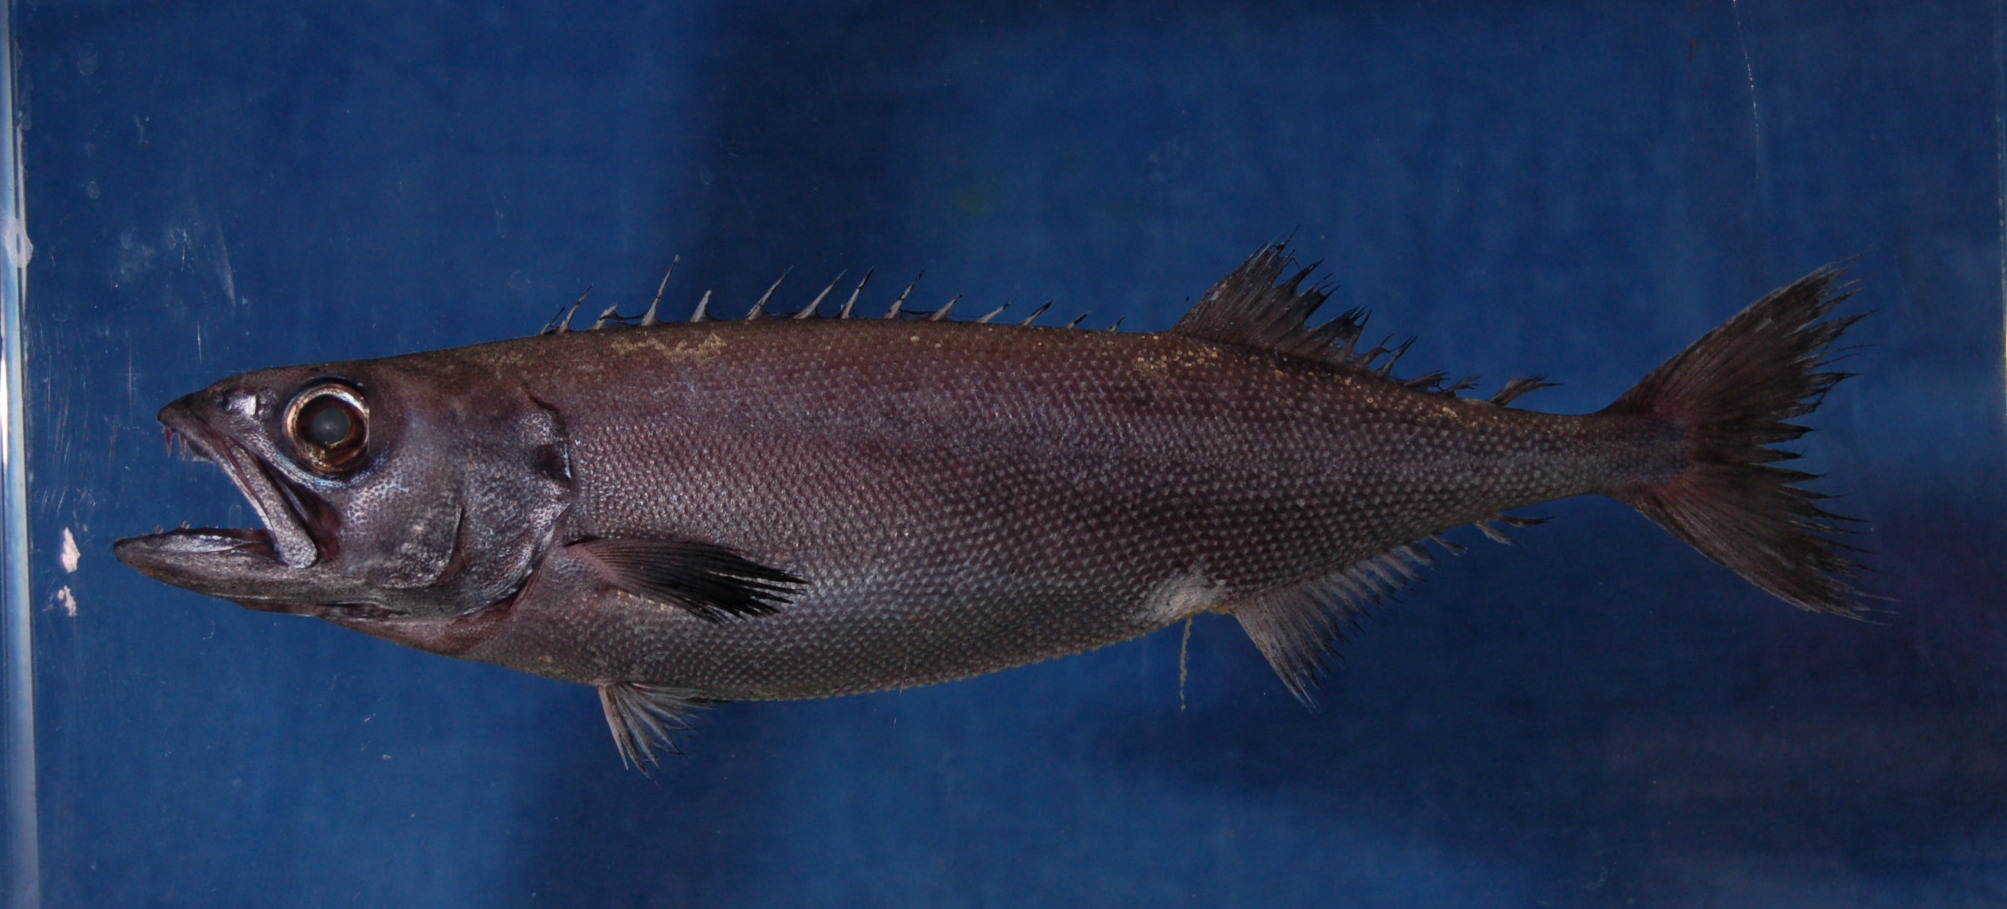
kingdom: Animalia
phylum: Chordata
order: Perciformes
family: Gempylidae
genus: Ruvettus
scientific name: Ruvettus pretiosus
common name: Oilfish
